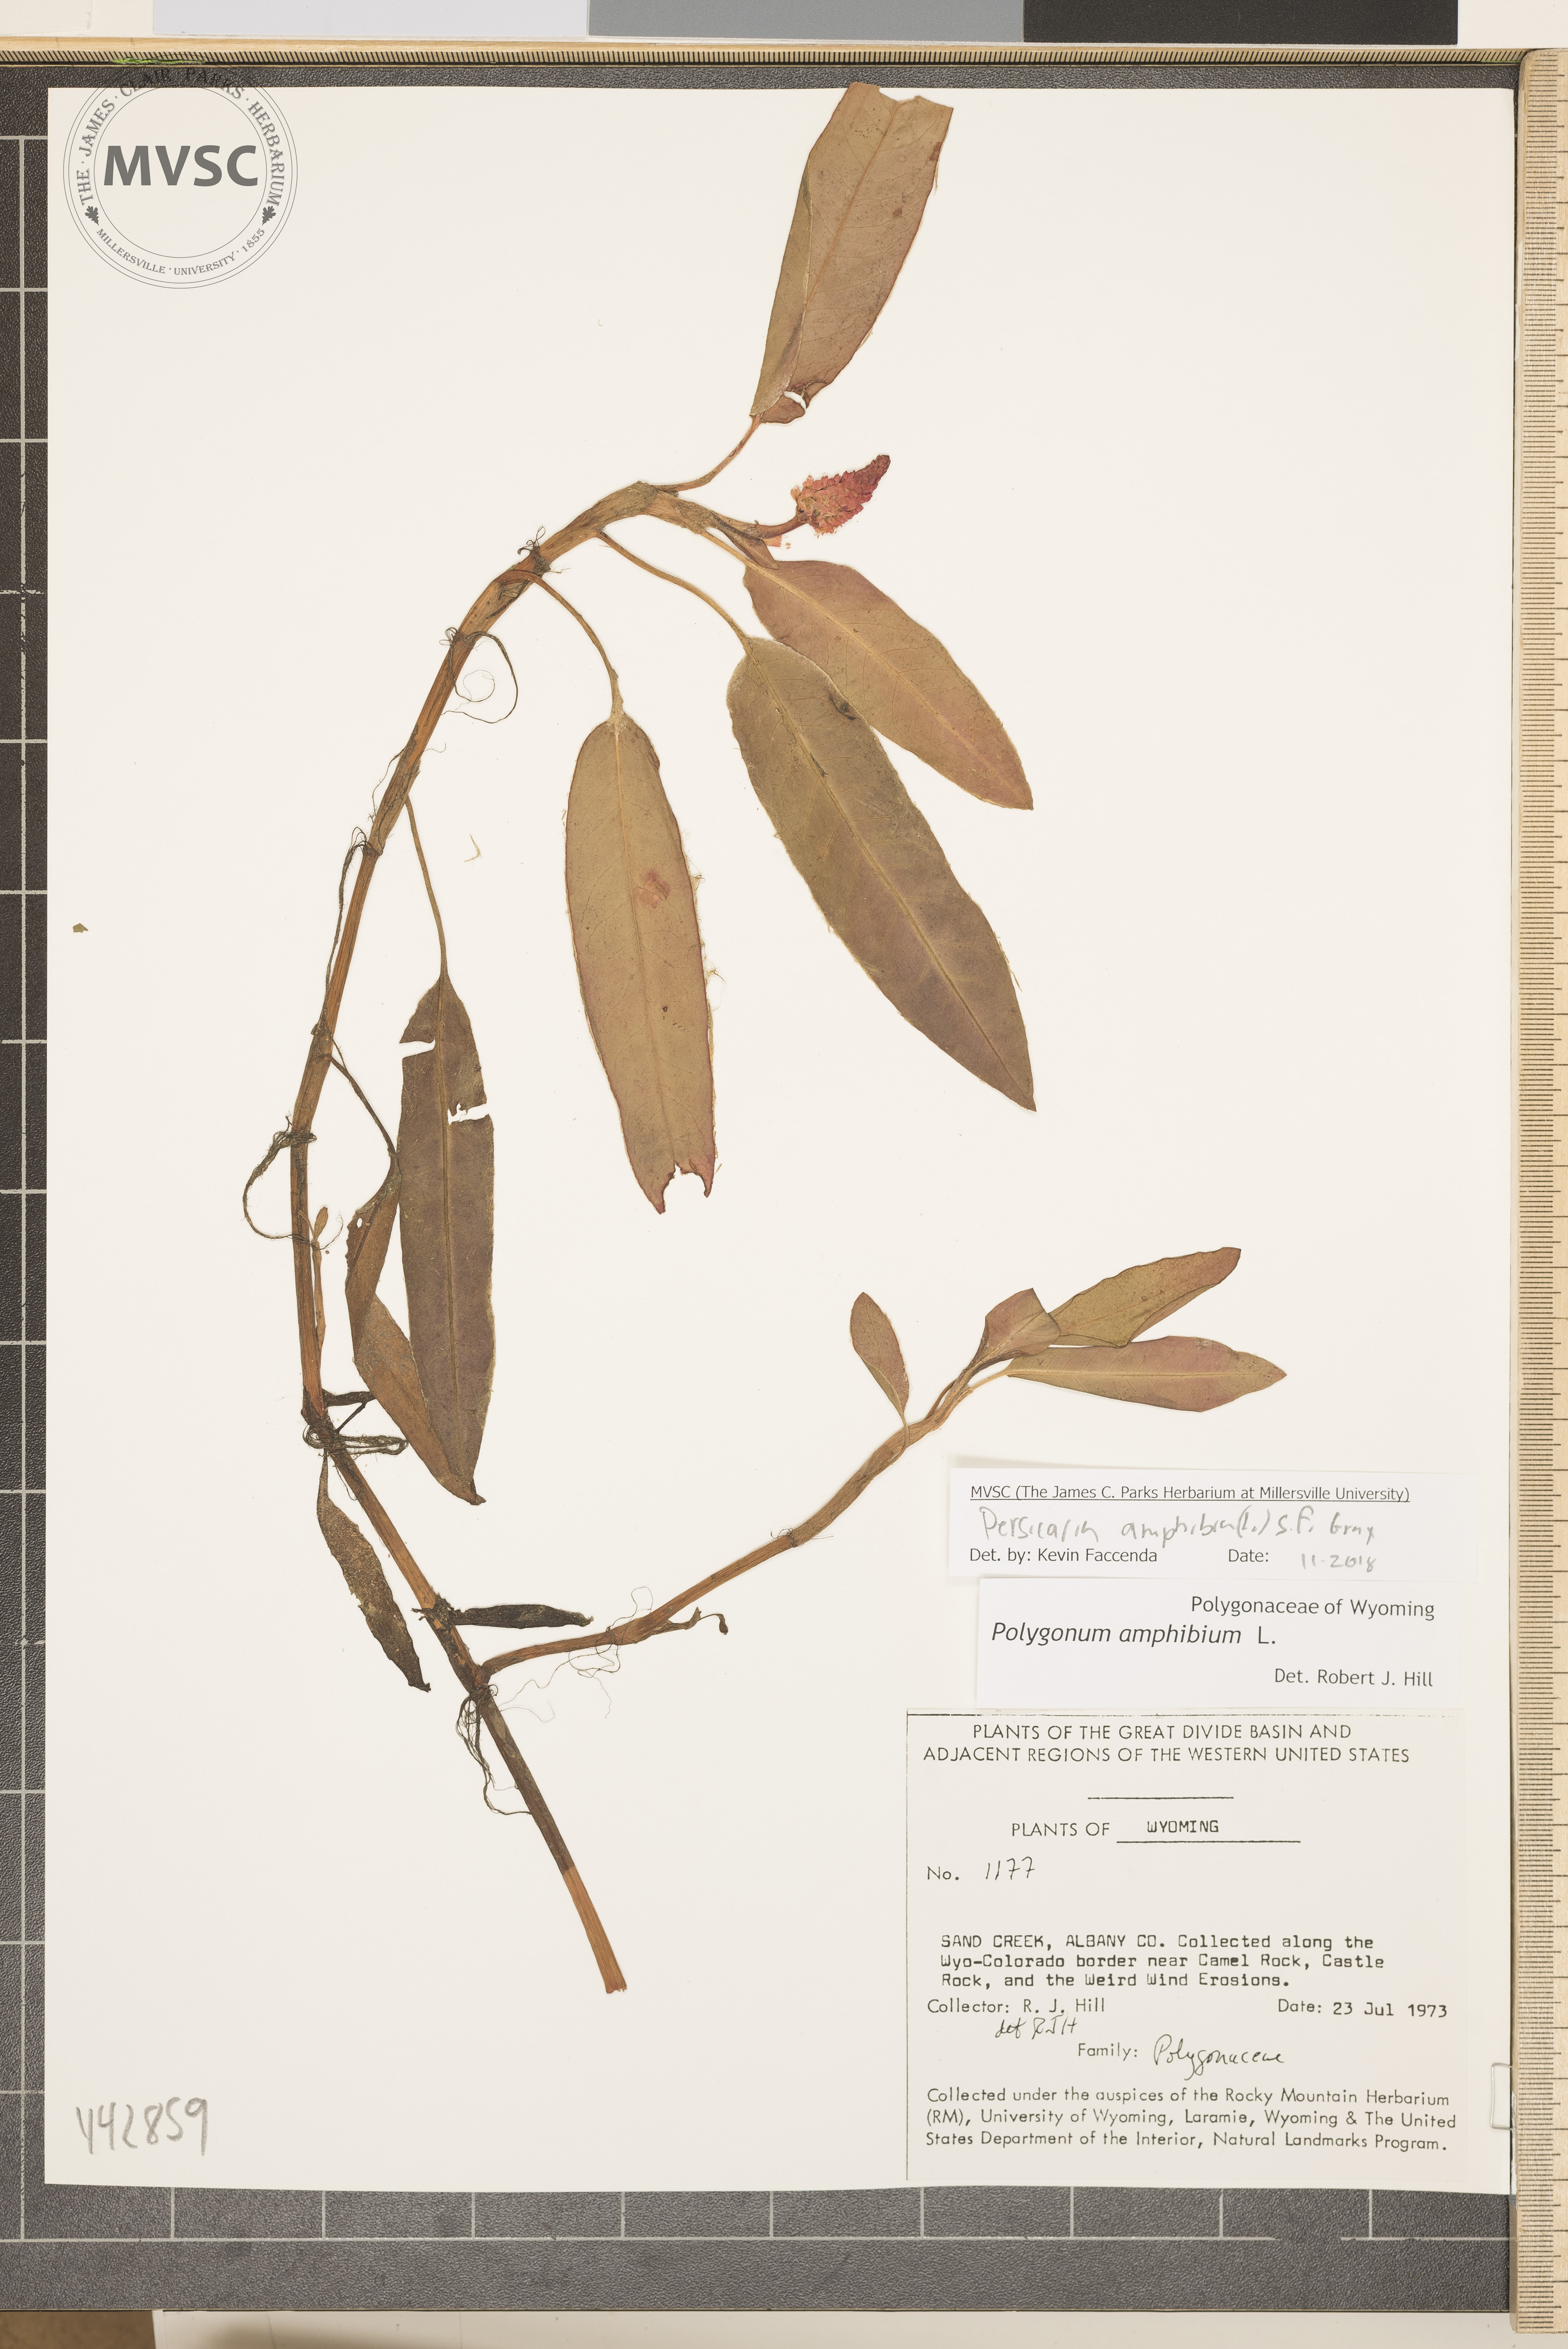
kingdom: Plantae
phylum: Tracheophyta
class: Magnoliopsida
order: Caryophyllales
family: Polygonaceae
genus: Persicaria
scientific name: Persicaria amphibia
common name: Amphibious bistort
